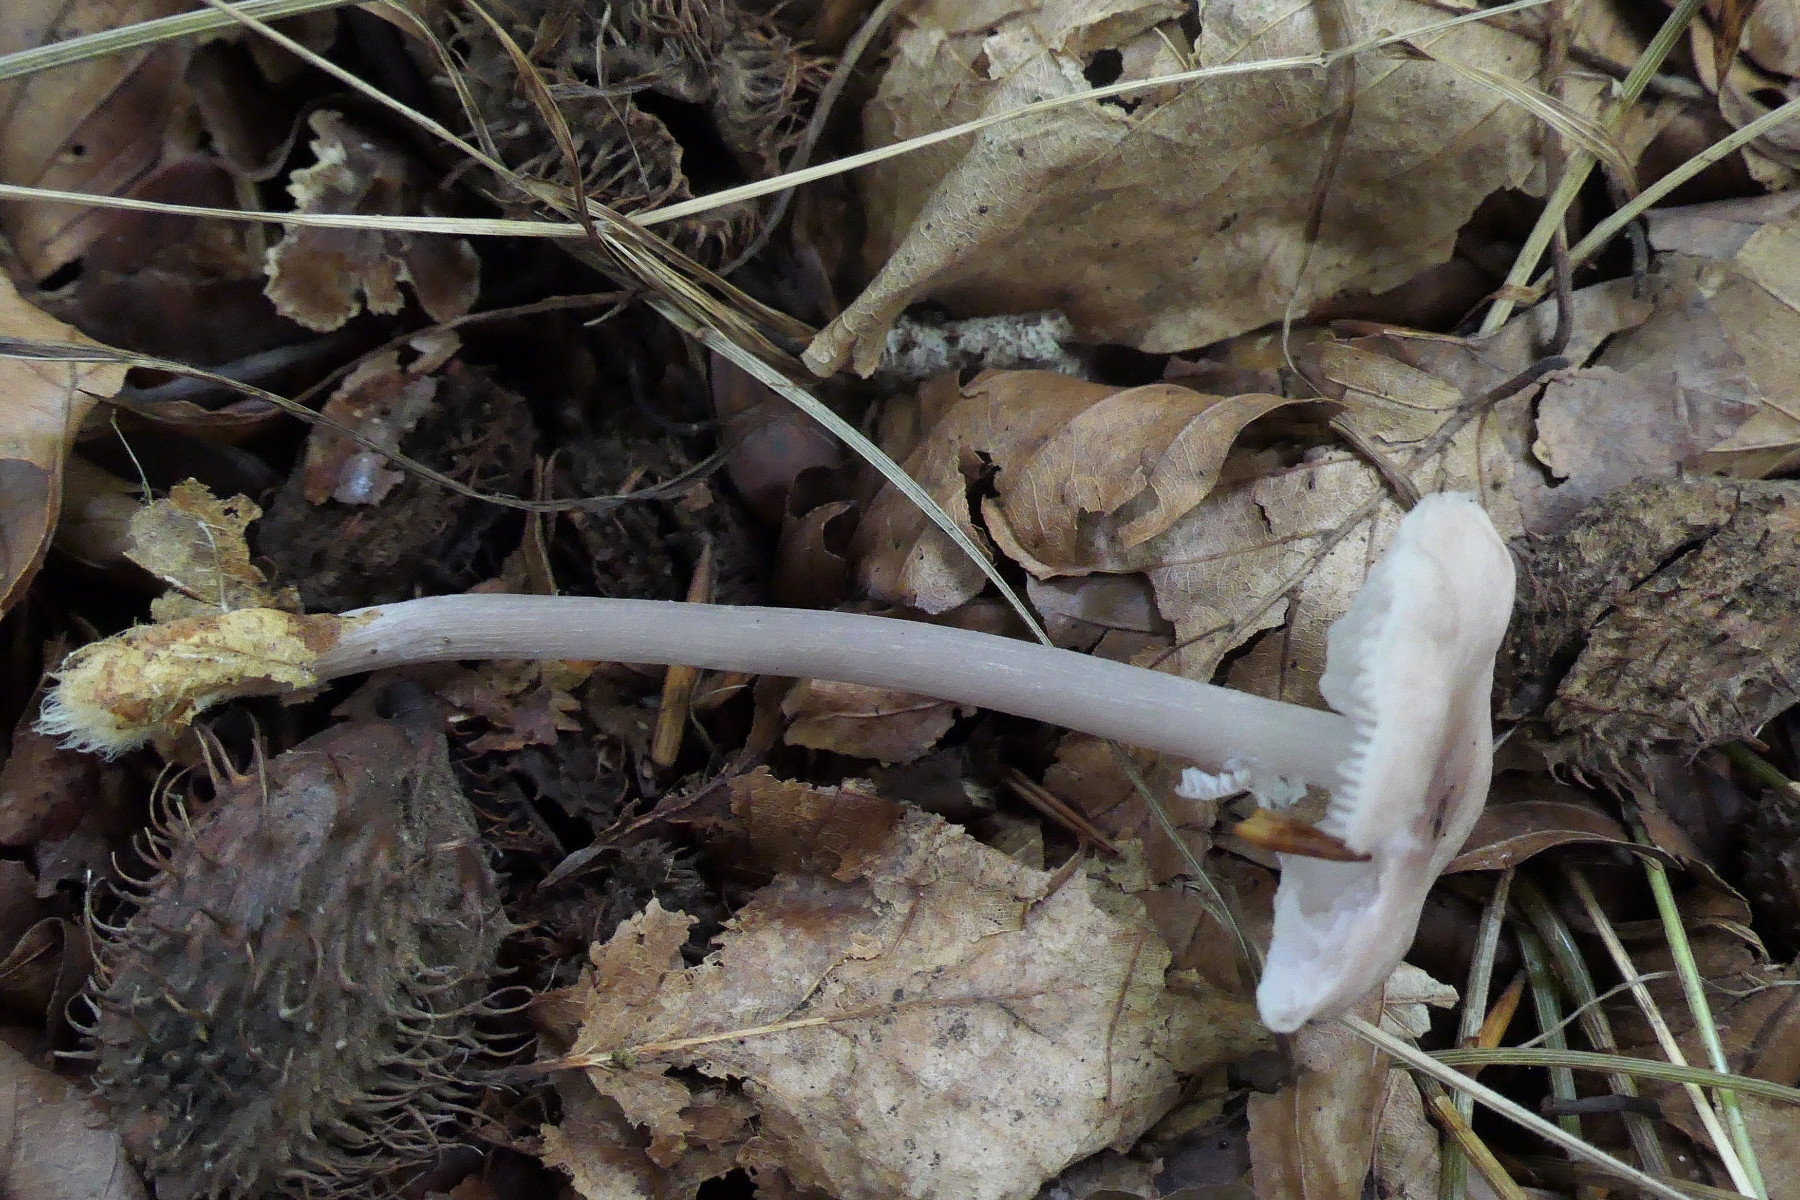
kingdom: Fungi
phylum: Basidiomycota
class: Agaricomycetes
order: Agaricales
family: Mycenaceae
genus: Mycena
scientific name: Mycena rosea
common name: rosa huesvamp
